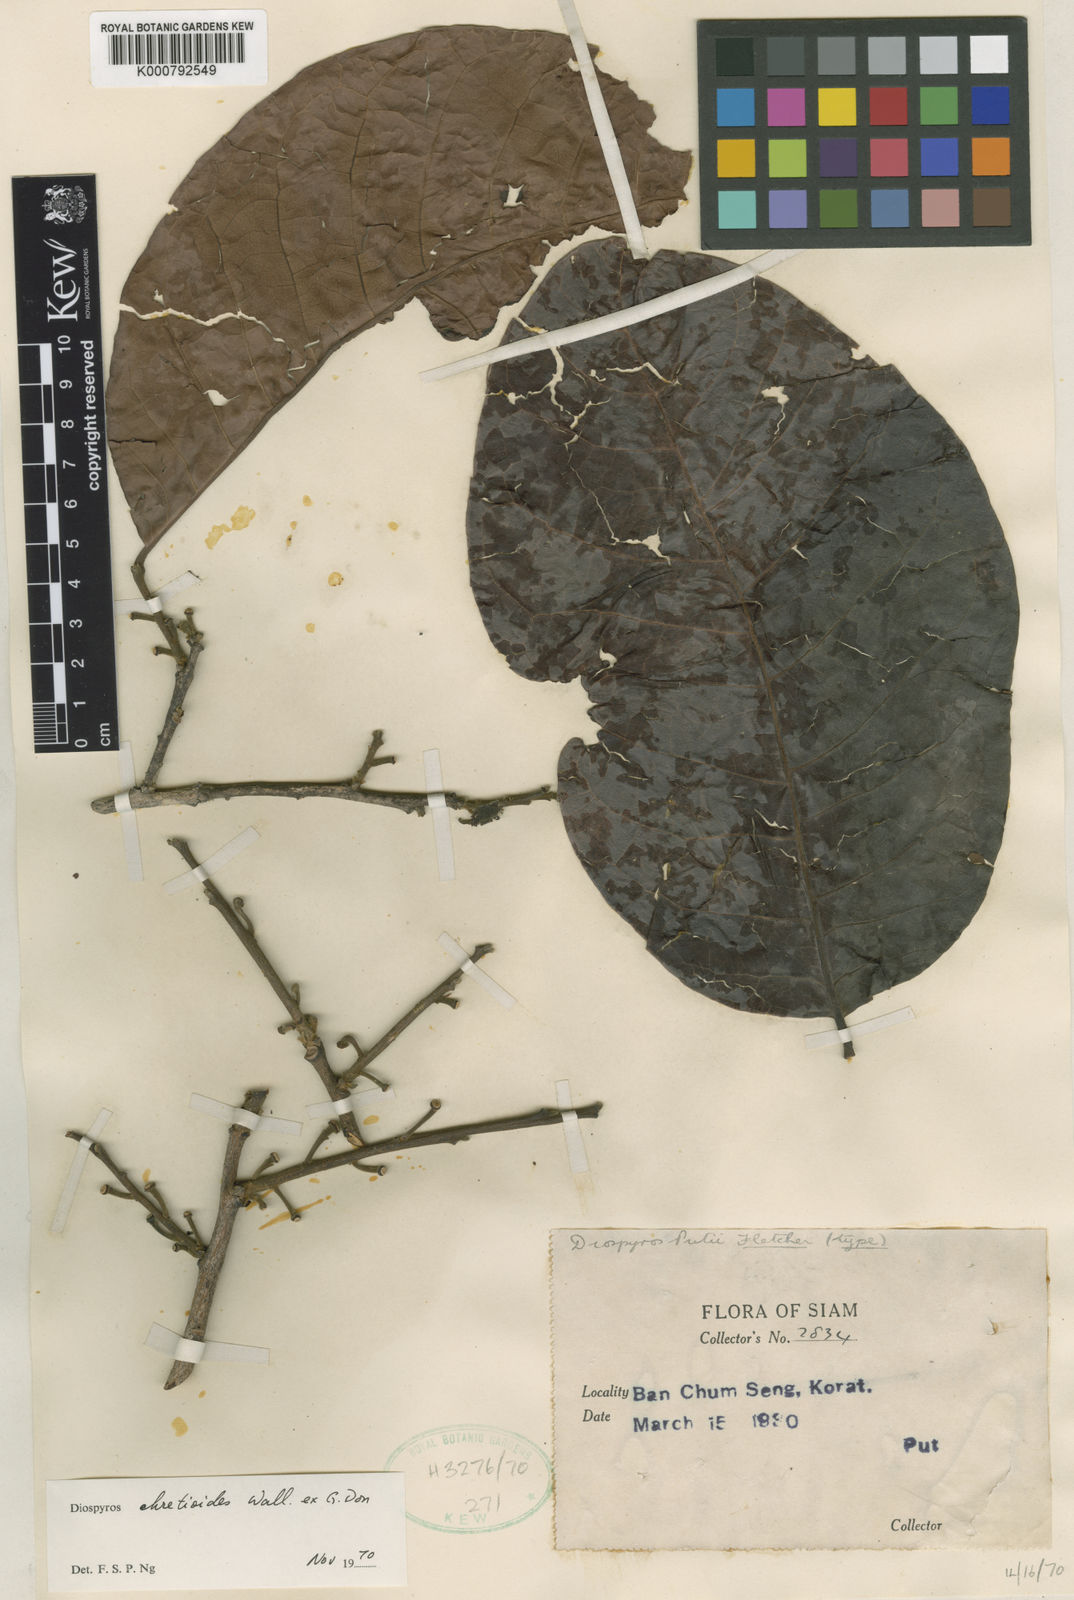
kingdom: Plantae
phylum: Tracheophyta
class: Magnoliopsida
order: Ericales
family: Ebenaceae
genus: Diospyros
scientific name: Diospyros ehretioides
